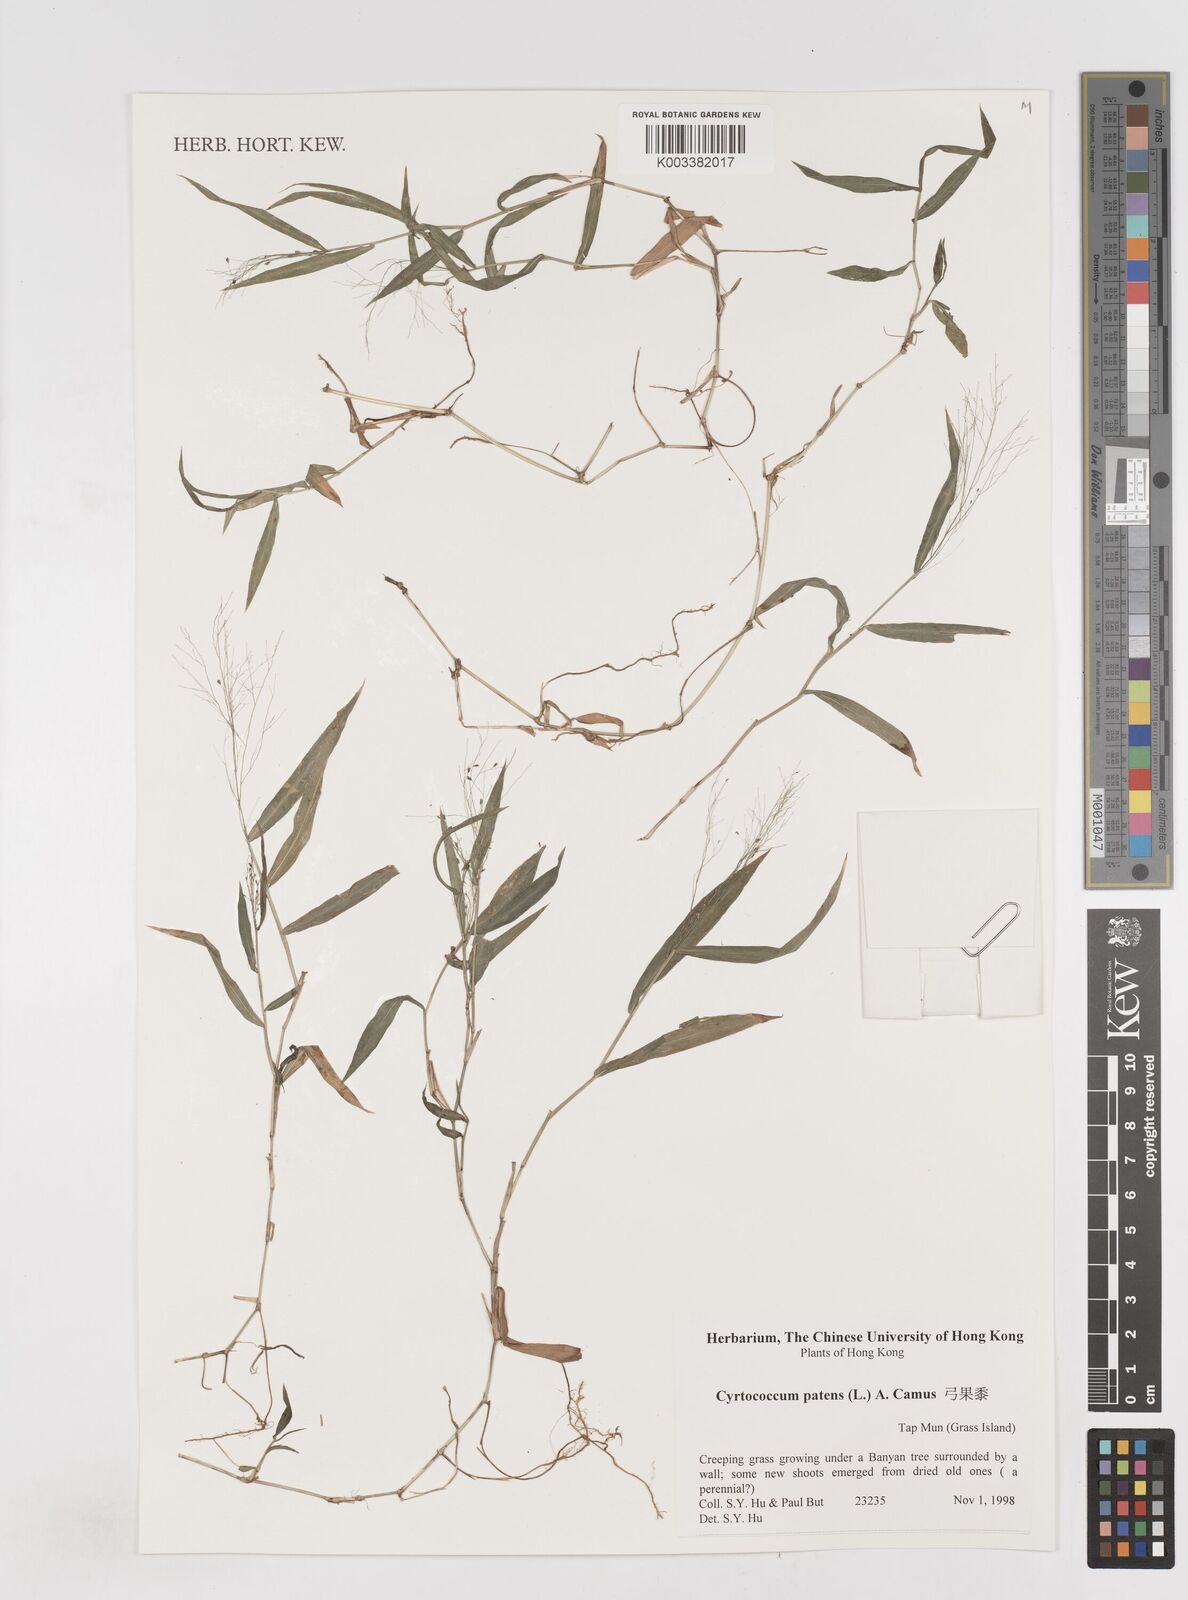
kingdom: Plantae
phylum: Tracheophyta
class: Liliopsida
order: Poales
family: Poaceae
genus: Cyrtococcum
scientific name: Cyrtococcum patens
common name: Broad-leaved bowgrass
